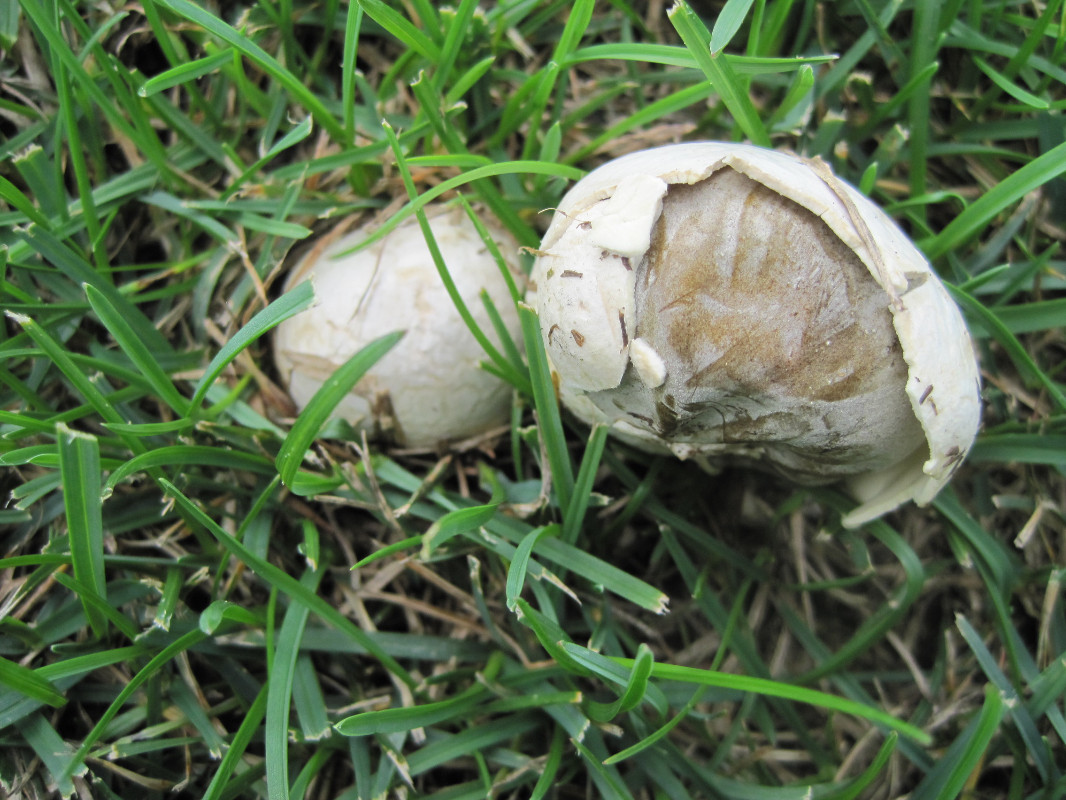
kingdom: Fungi
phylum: Basidiomycota
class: Agaricomycetes
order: Agaricales
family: Lycoperdaceae
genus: Bovista
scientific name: Bovista plumbea
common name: blygrå bovist
